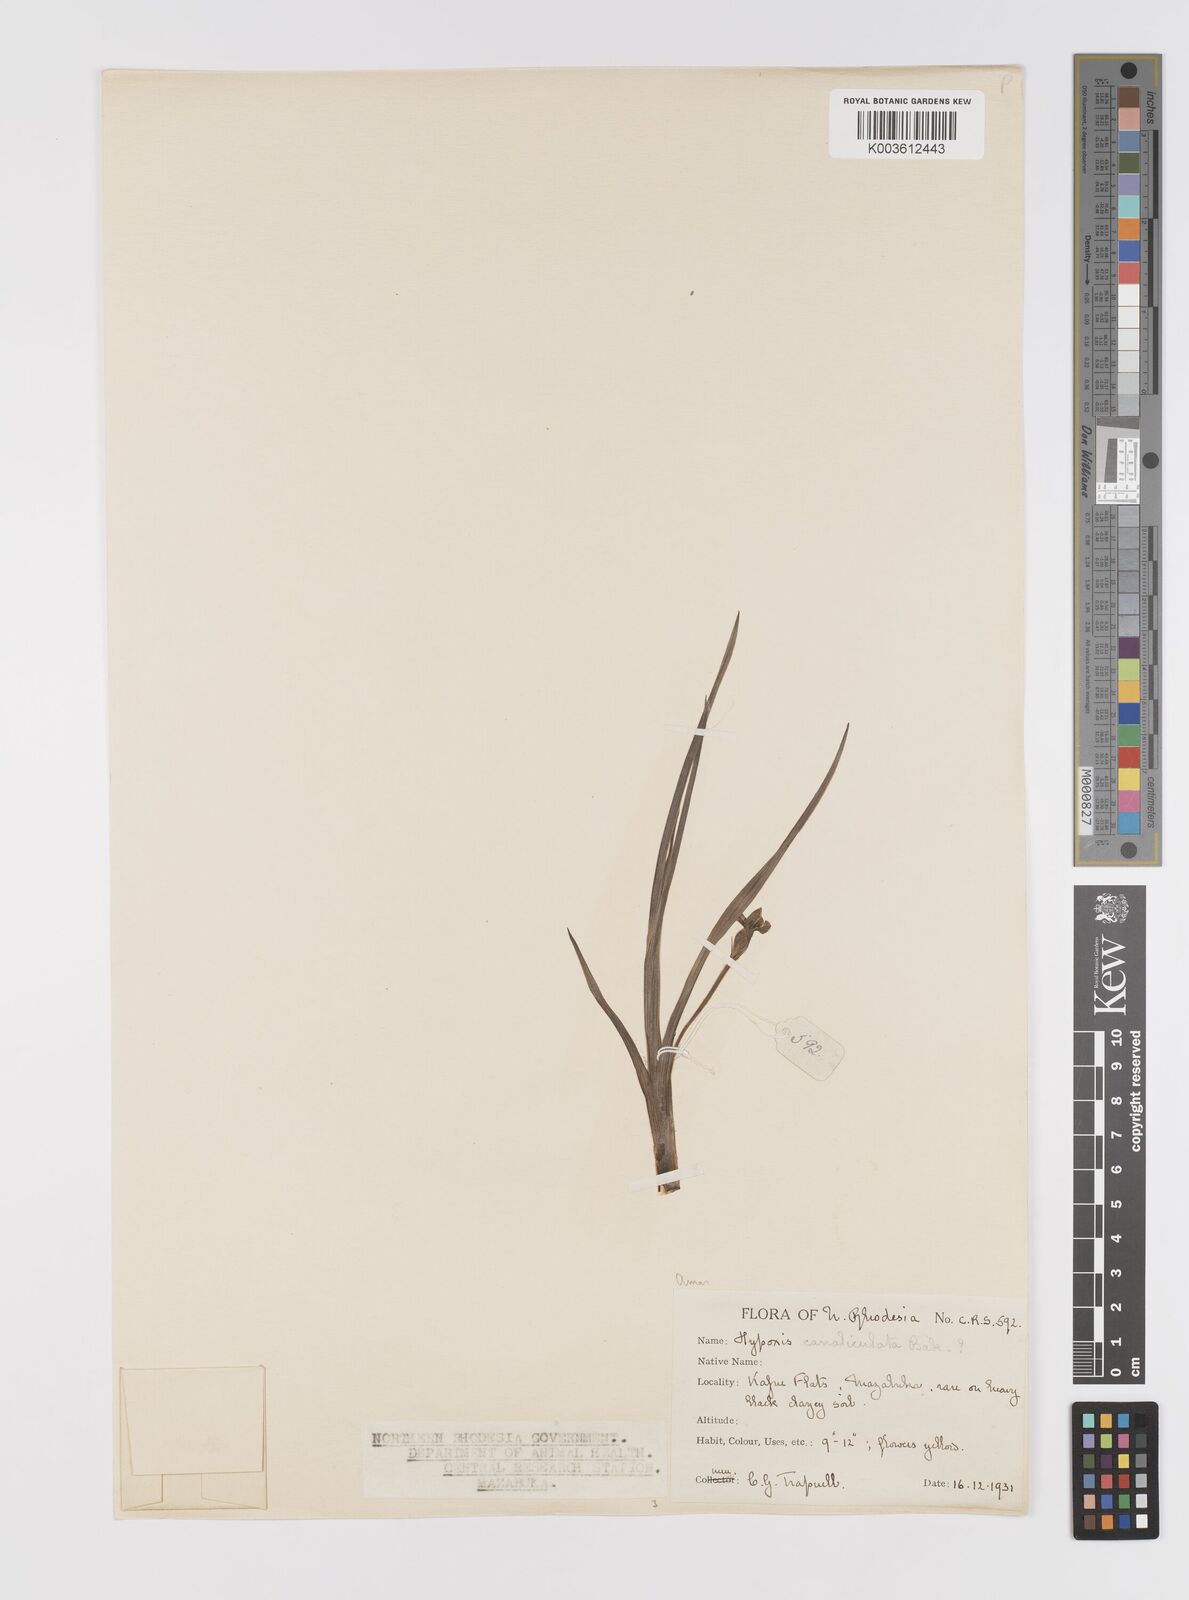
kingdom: Plantae
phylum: Tracheophyta
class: Liliopsida
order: Asparagales
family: Hypoxidaceae
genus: Hypoxis
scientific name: Hypoxis nyasica
